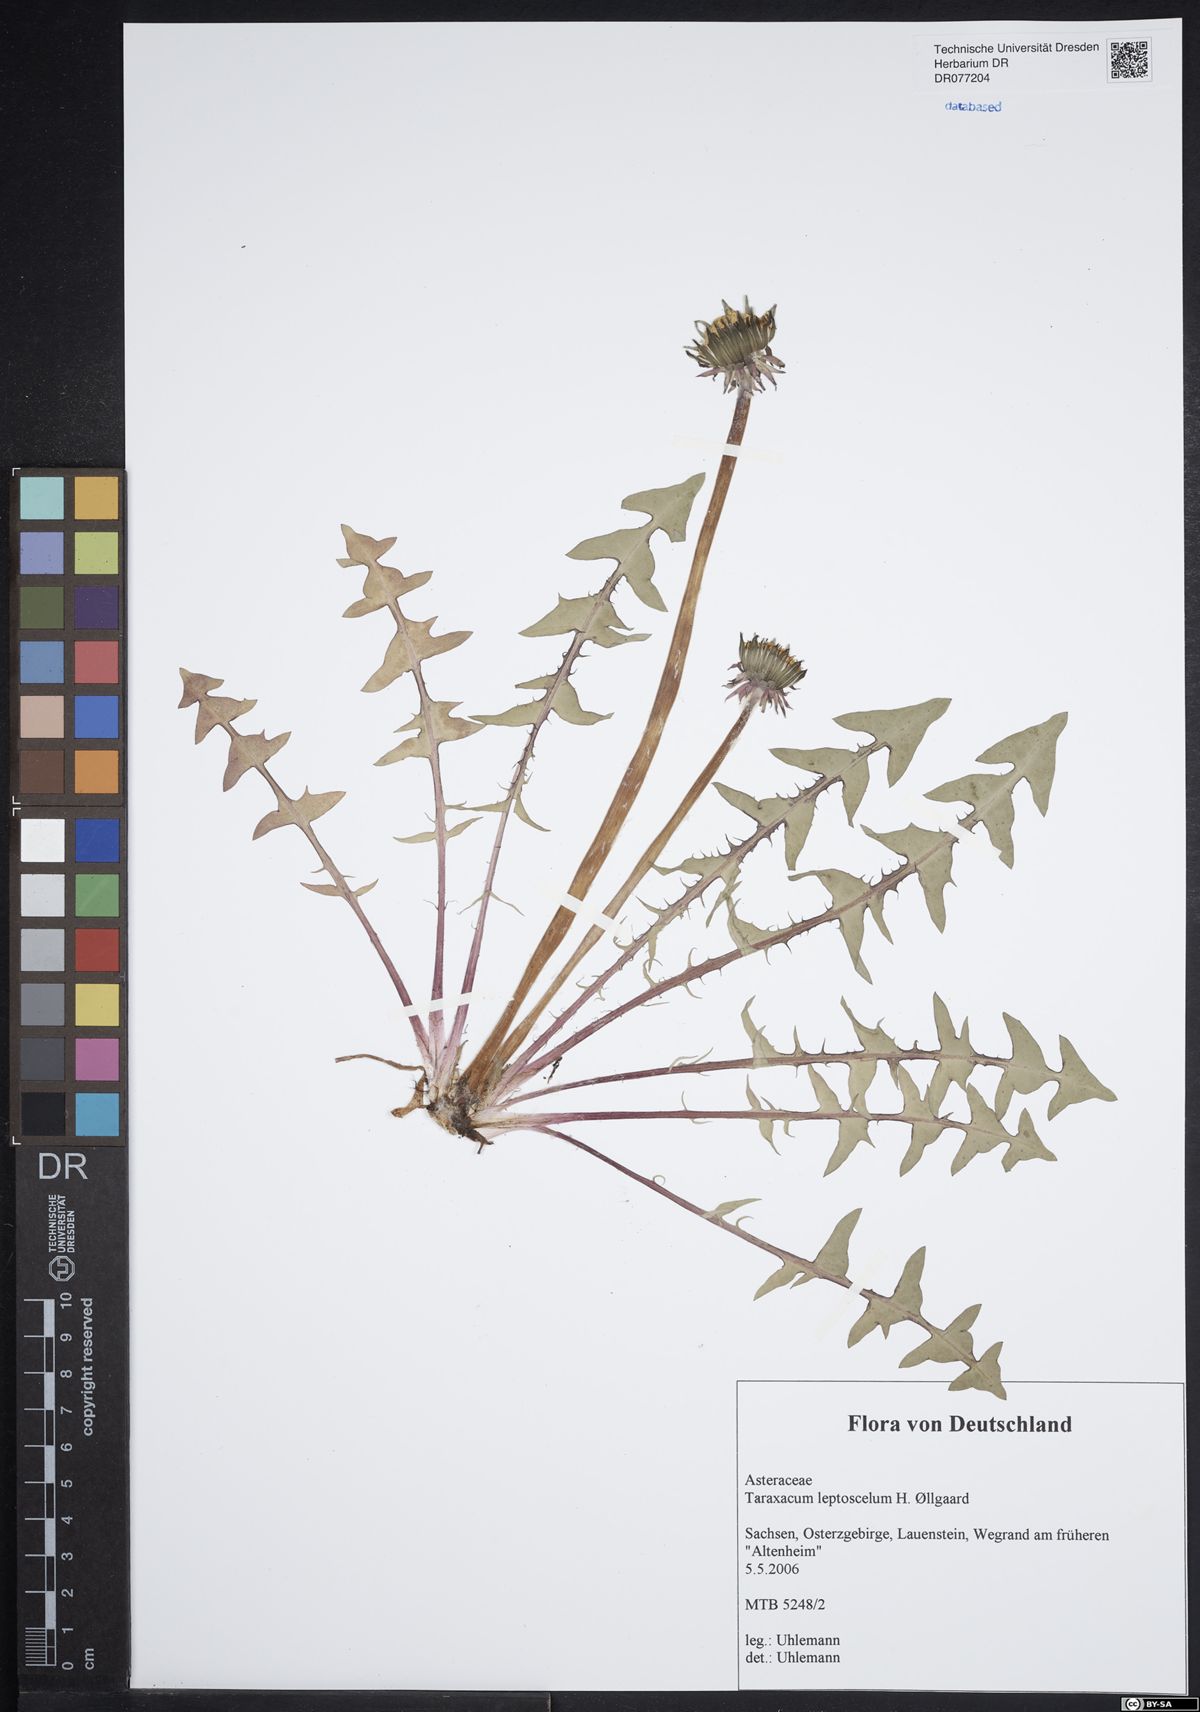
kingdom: Plantae
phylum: Tracheophyta
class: Magnoliopsida
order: Asterales
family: Asteraceae
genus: Taraxacum
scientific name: Taraxacum leptoscelum
